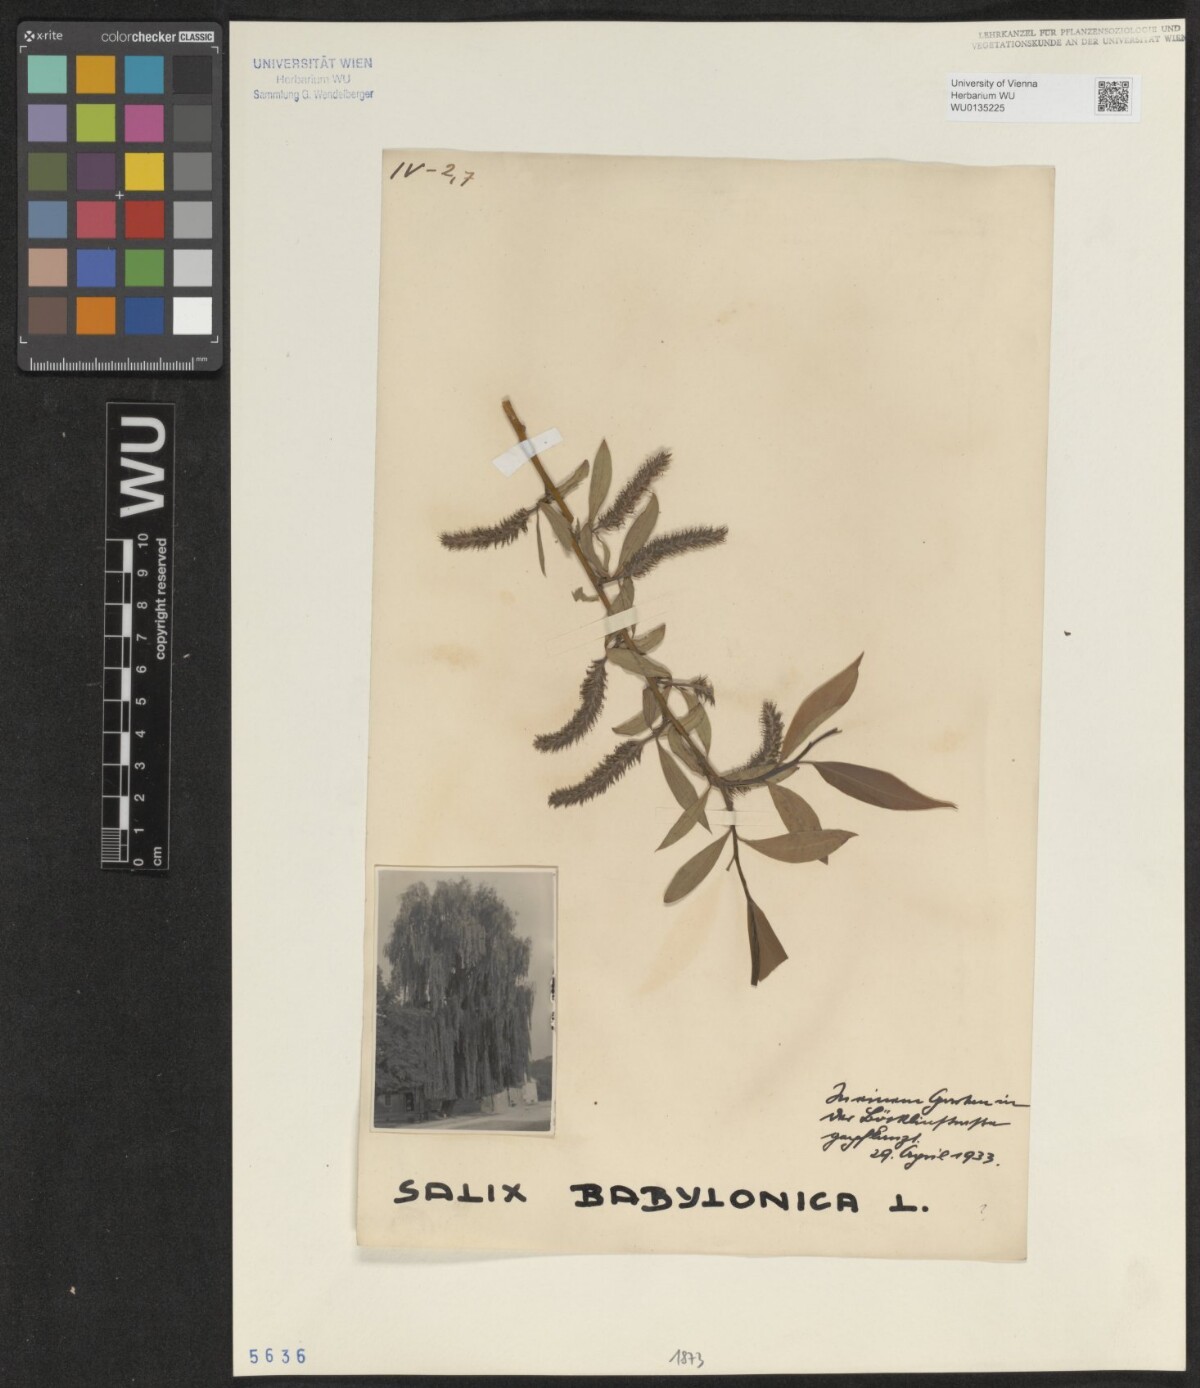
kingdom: Plantae
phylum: Tracheophyta
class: Magnoliopsida
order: Malpighiales
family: Salicaceae
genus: Salix
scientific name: Salix babylonica
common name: Weeping willow
